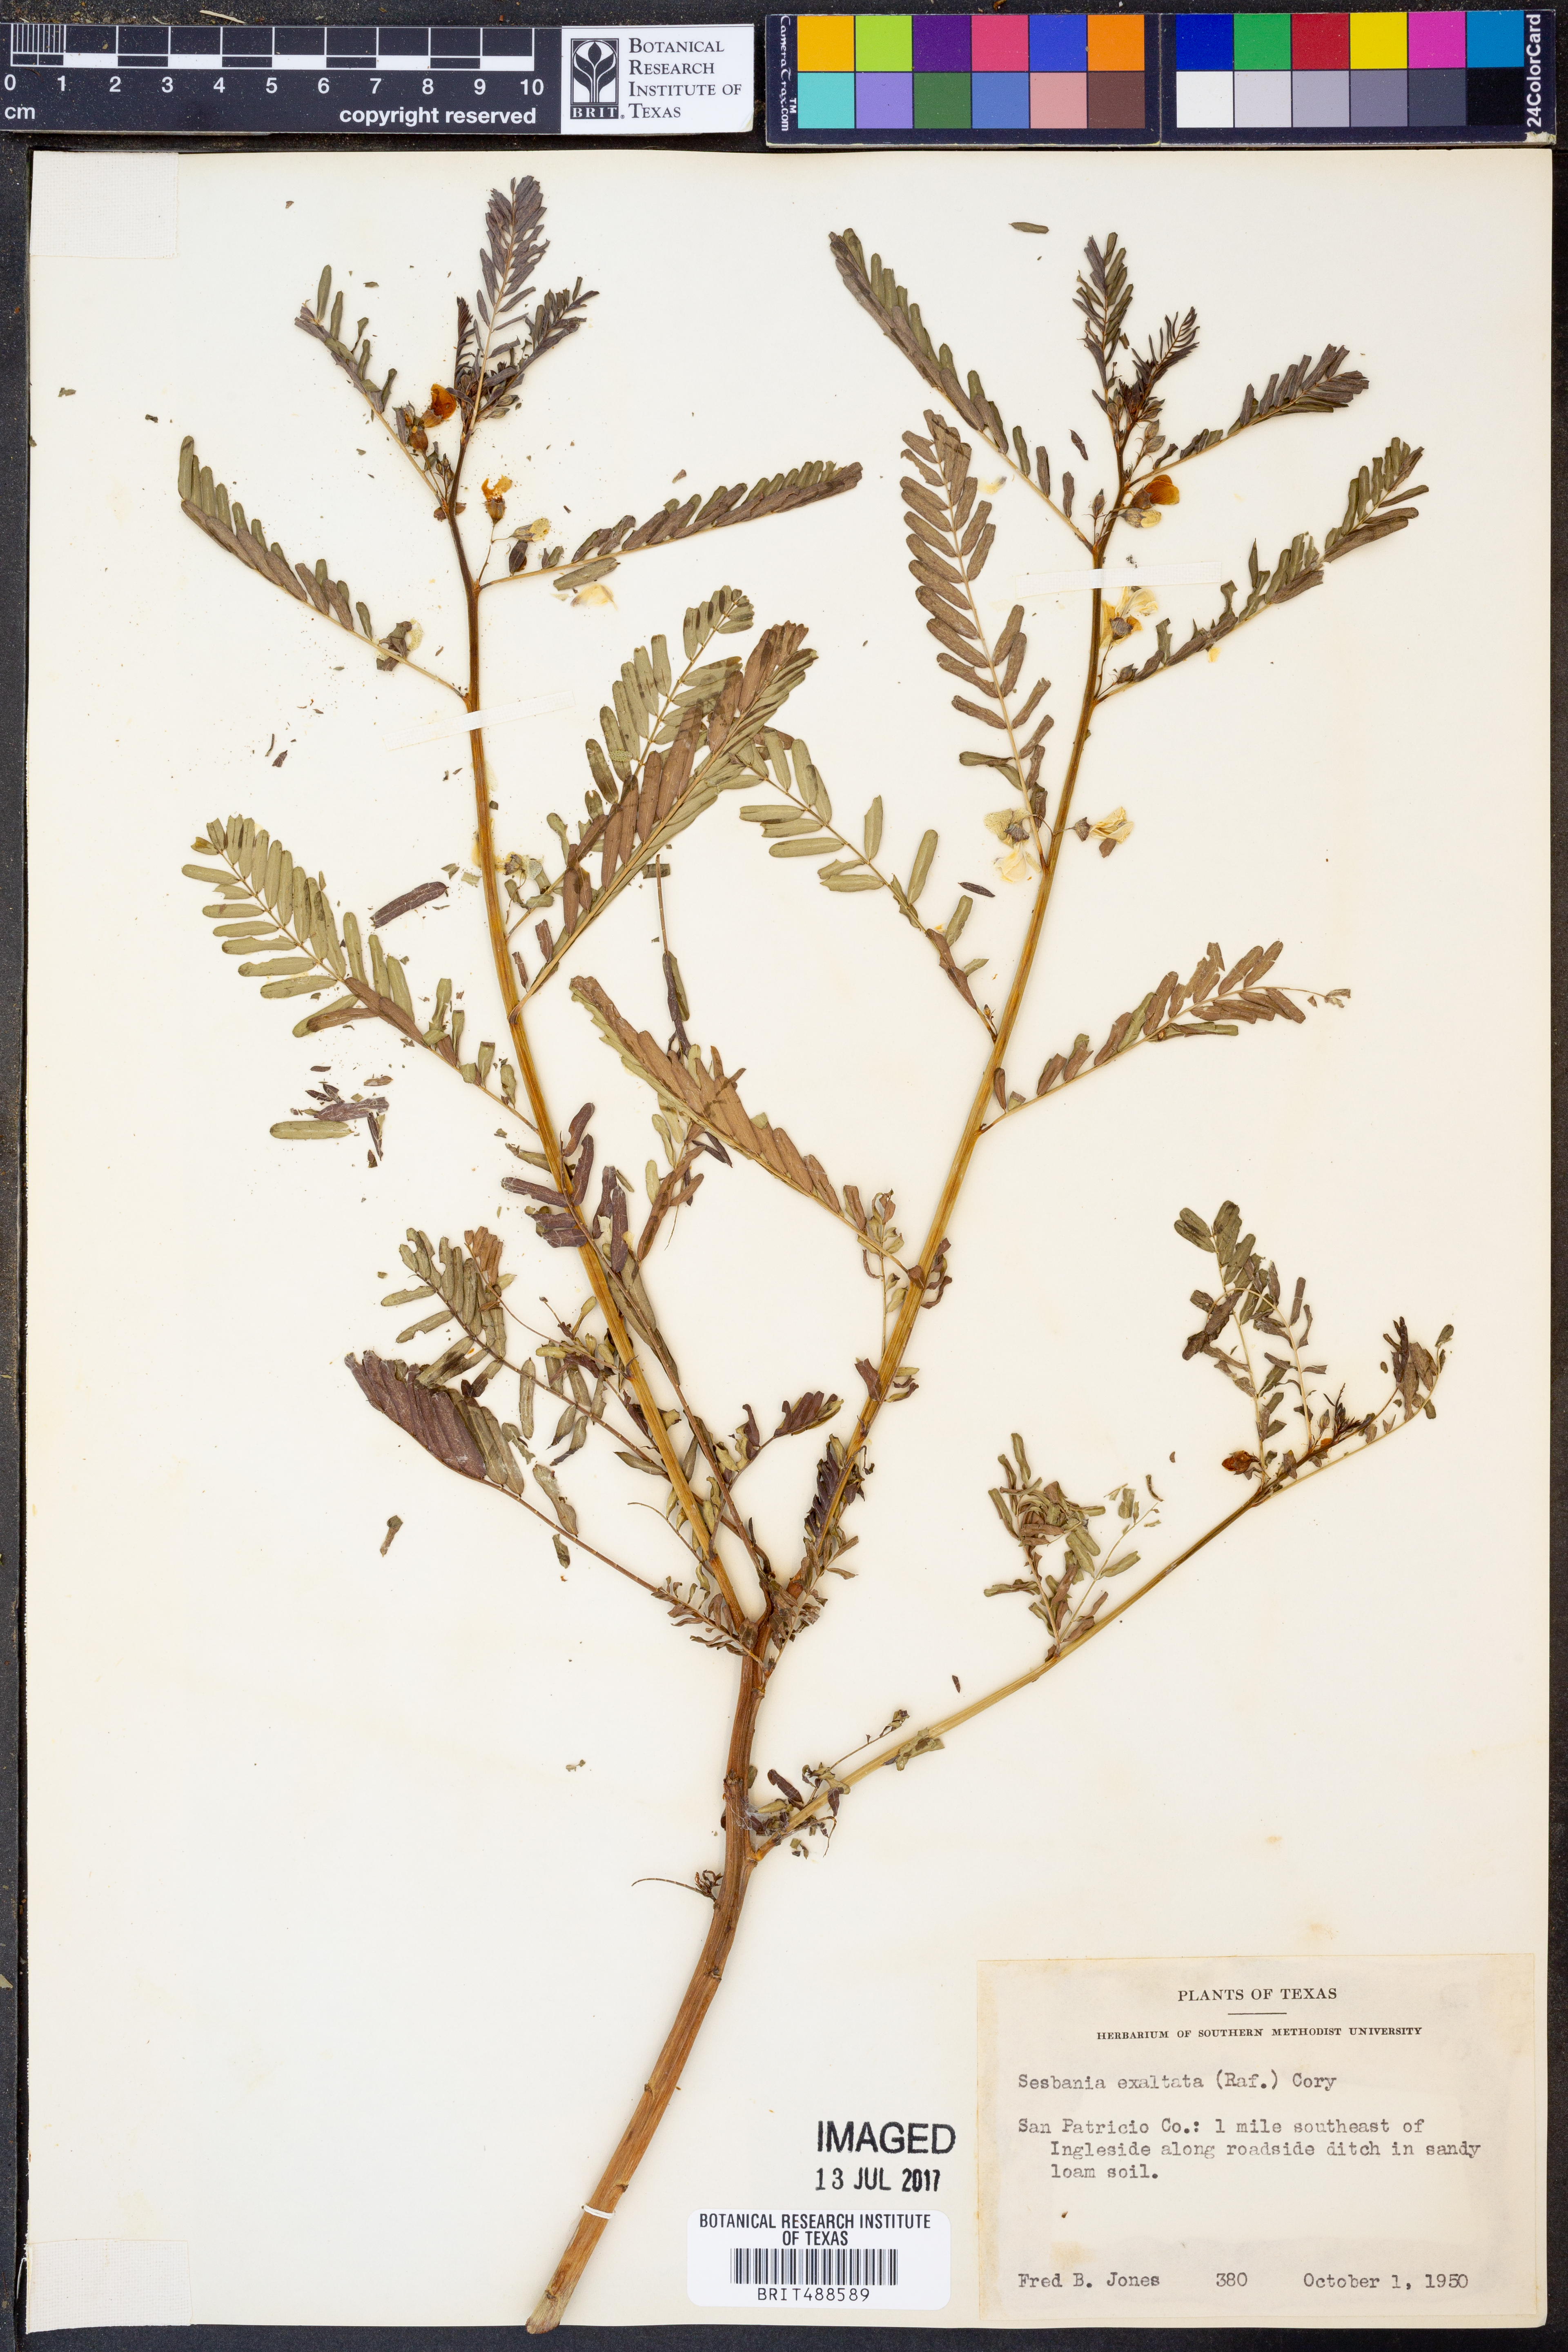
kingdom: Plantae
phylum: Tracheophyta
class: Magnoliopsida
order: Fabales
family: Fabaceae
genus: Sesbania
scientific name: Sesbania herbacea
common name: Bigpod sesbania
